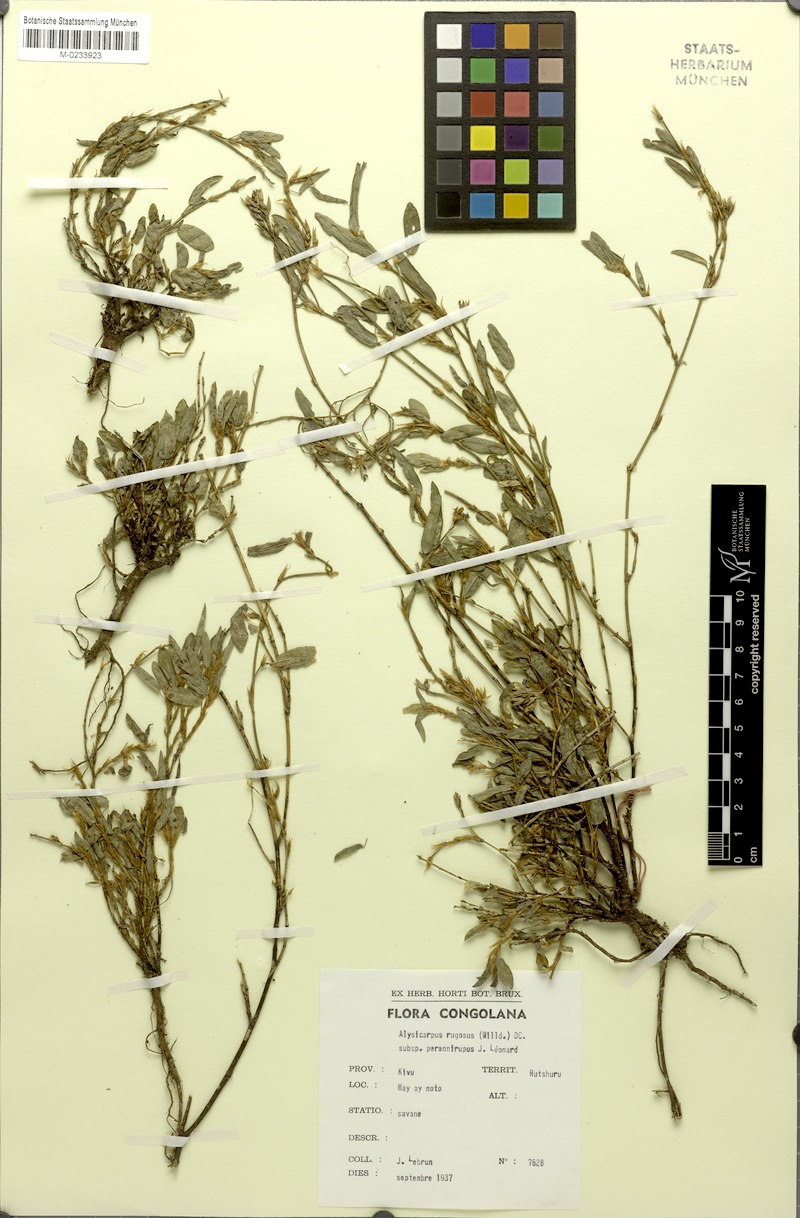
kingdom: Plantae
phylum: Tracheophyta
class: Magnoliopsida
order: Fabales
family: Fabaceae
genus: Alysicarpus
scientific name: Alysicarpus rugosus
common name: Red moneywort
